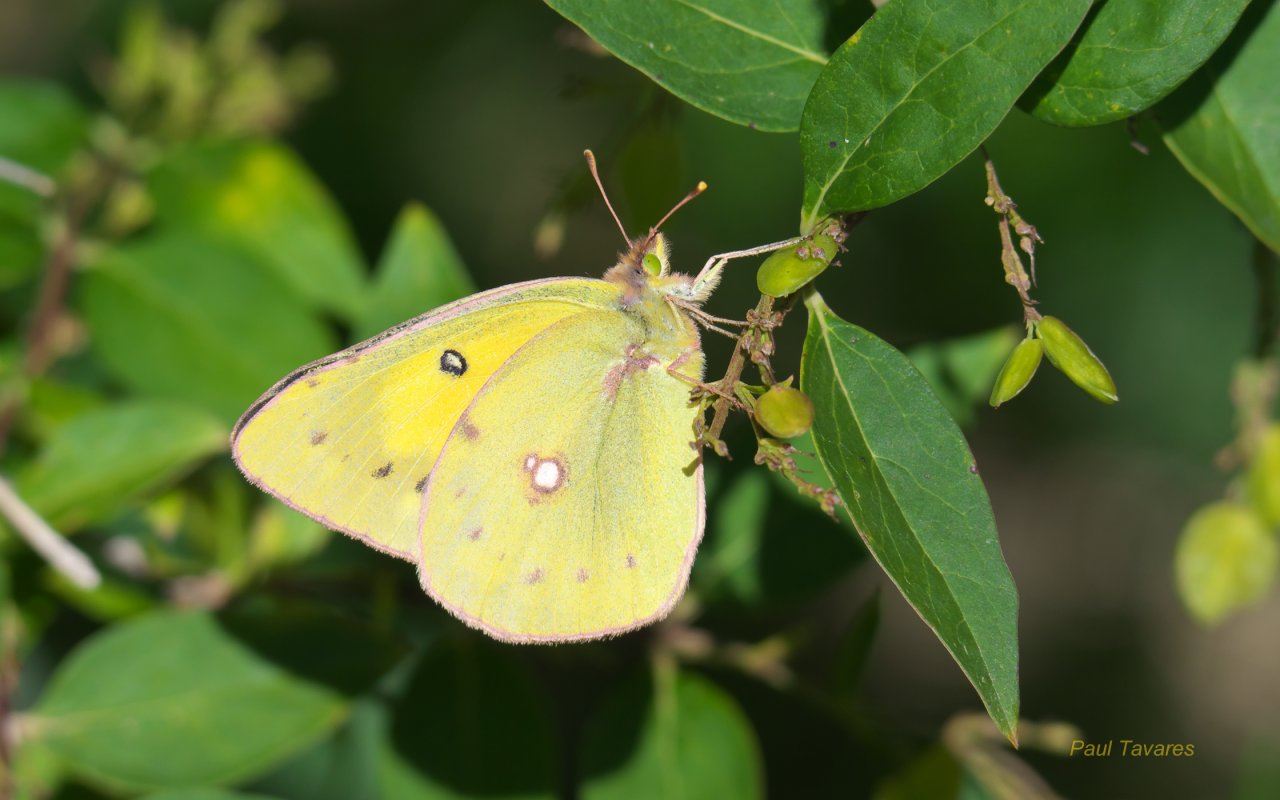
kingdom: Animalia
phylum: Arthropoda
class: Insecta
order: Lepidoptera
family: Pieridae
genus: Colias
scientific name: Colias philodice
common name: Clouded Sulphur
